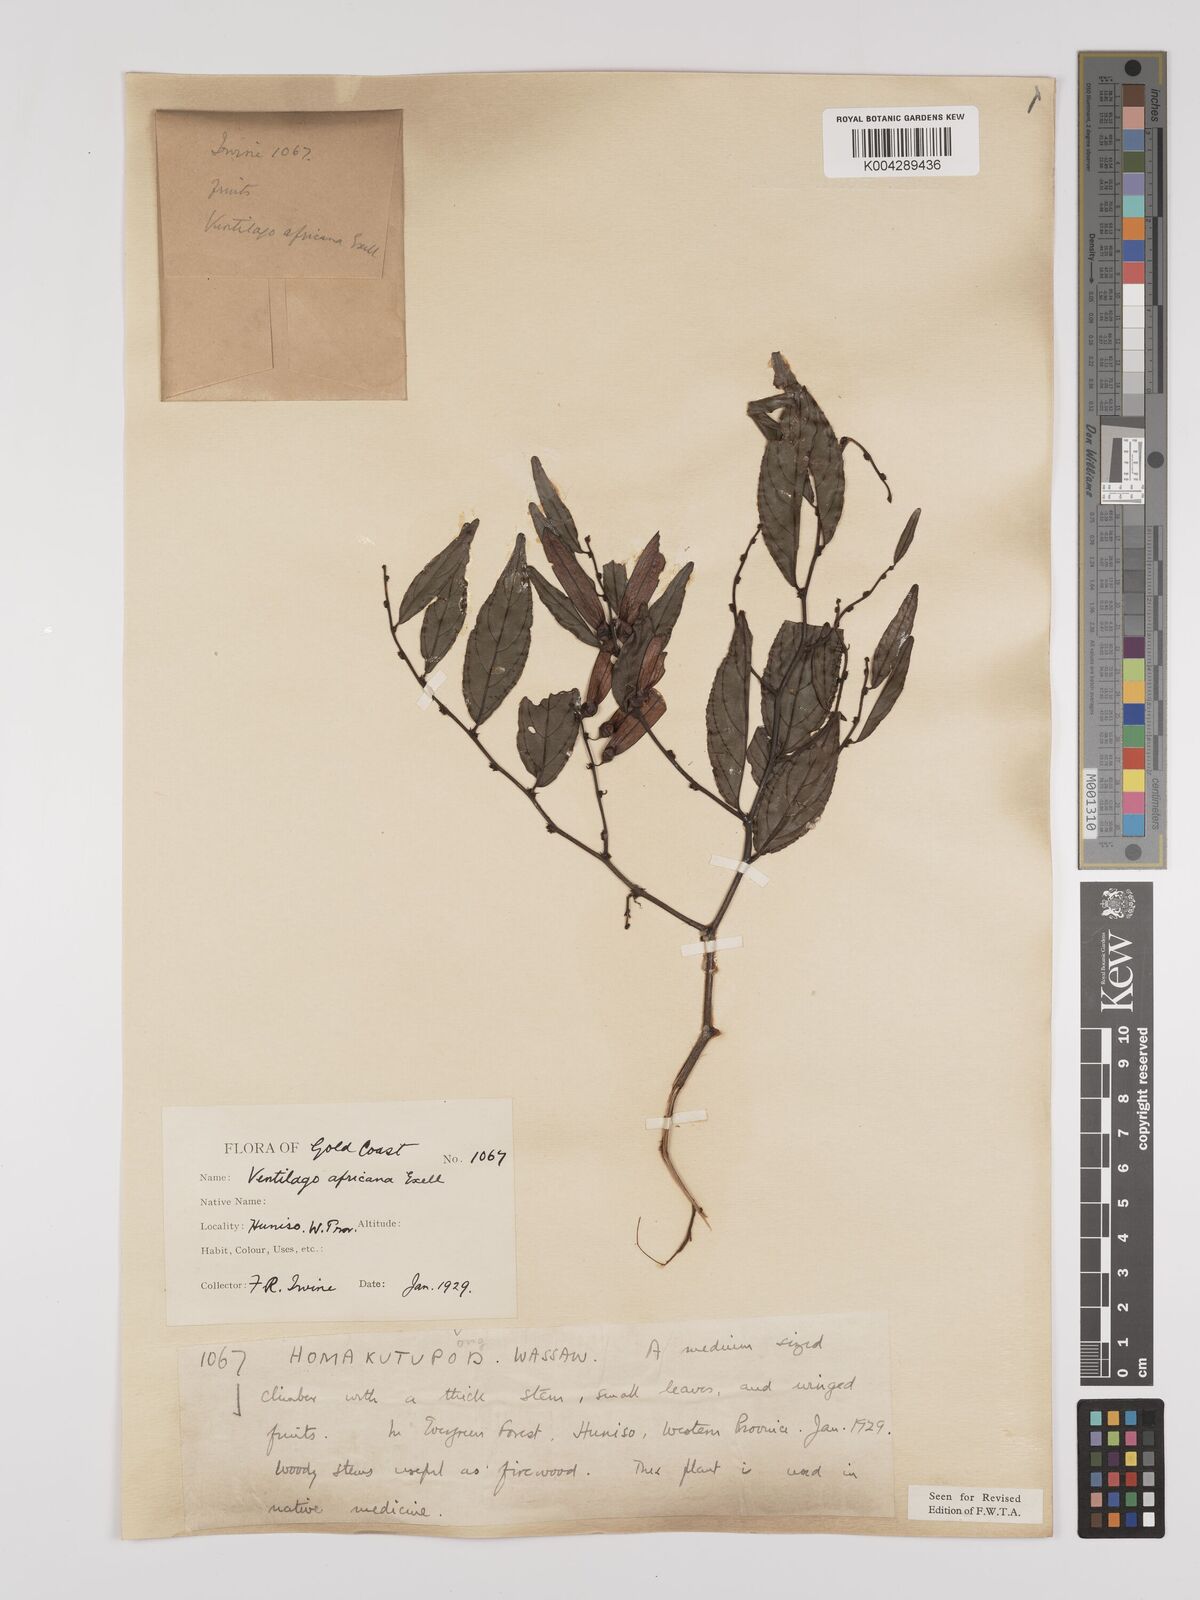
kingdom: Plantae
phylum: Tracheophyta
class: Magnoliopsida
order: Rosales
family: Rhamnaceae
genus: Ventilago
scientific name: Ventilago africana
